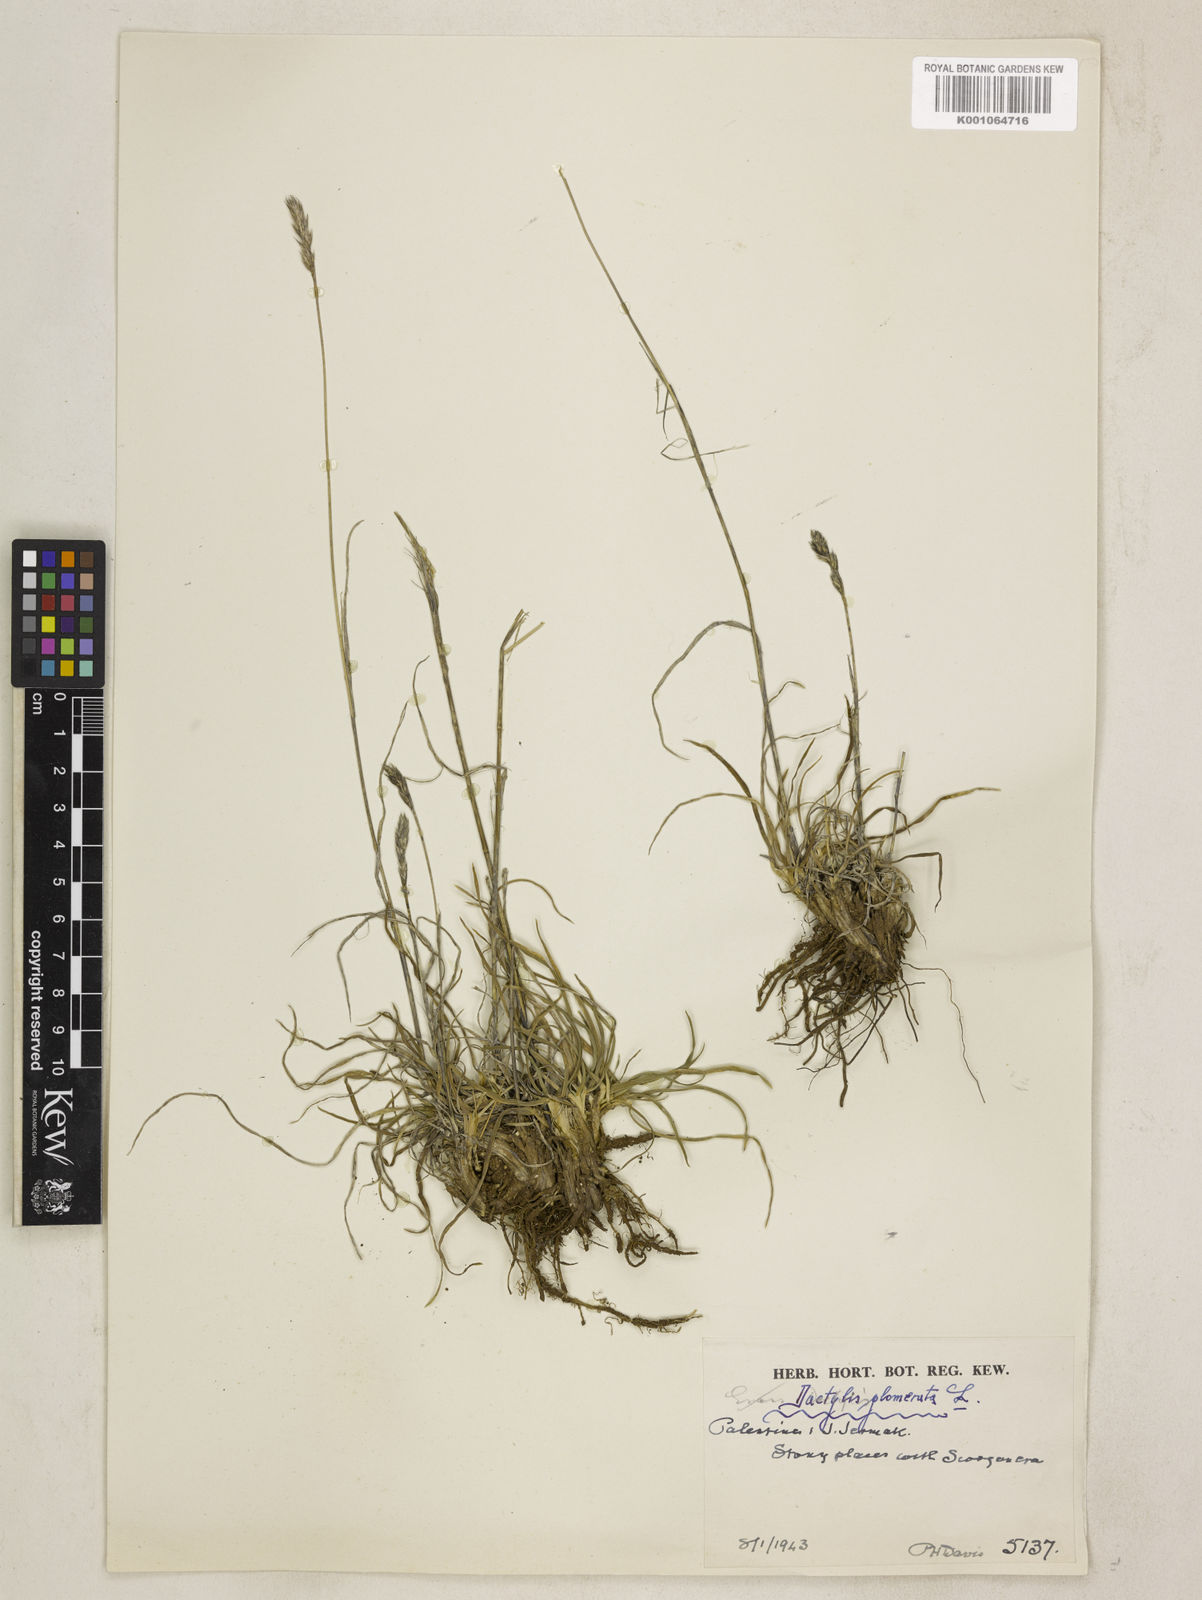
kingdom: Plantae
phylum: Tracheophyta
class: Liliopsida
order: Poales
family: Poaceae
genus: Dactylis
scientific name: Dactylis glomerata
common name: Orchardgrass
